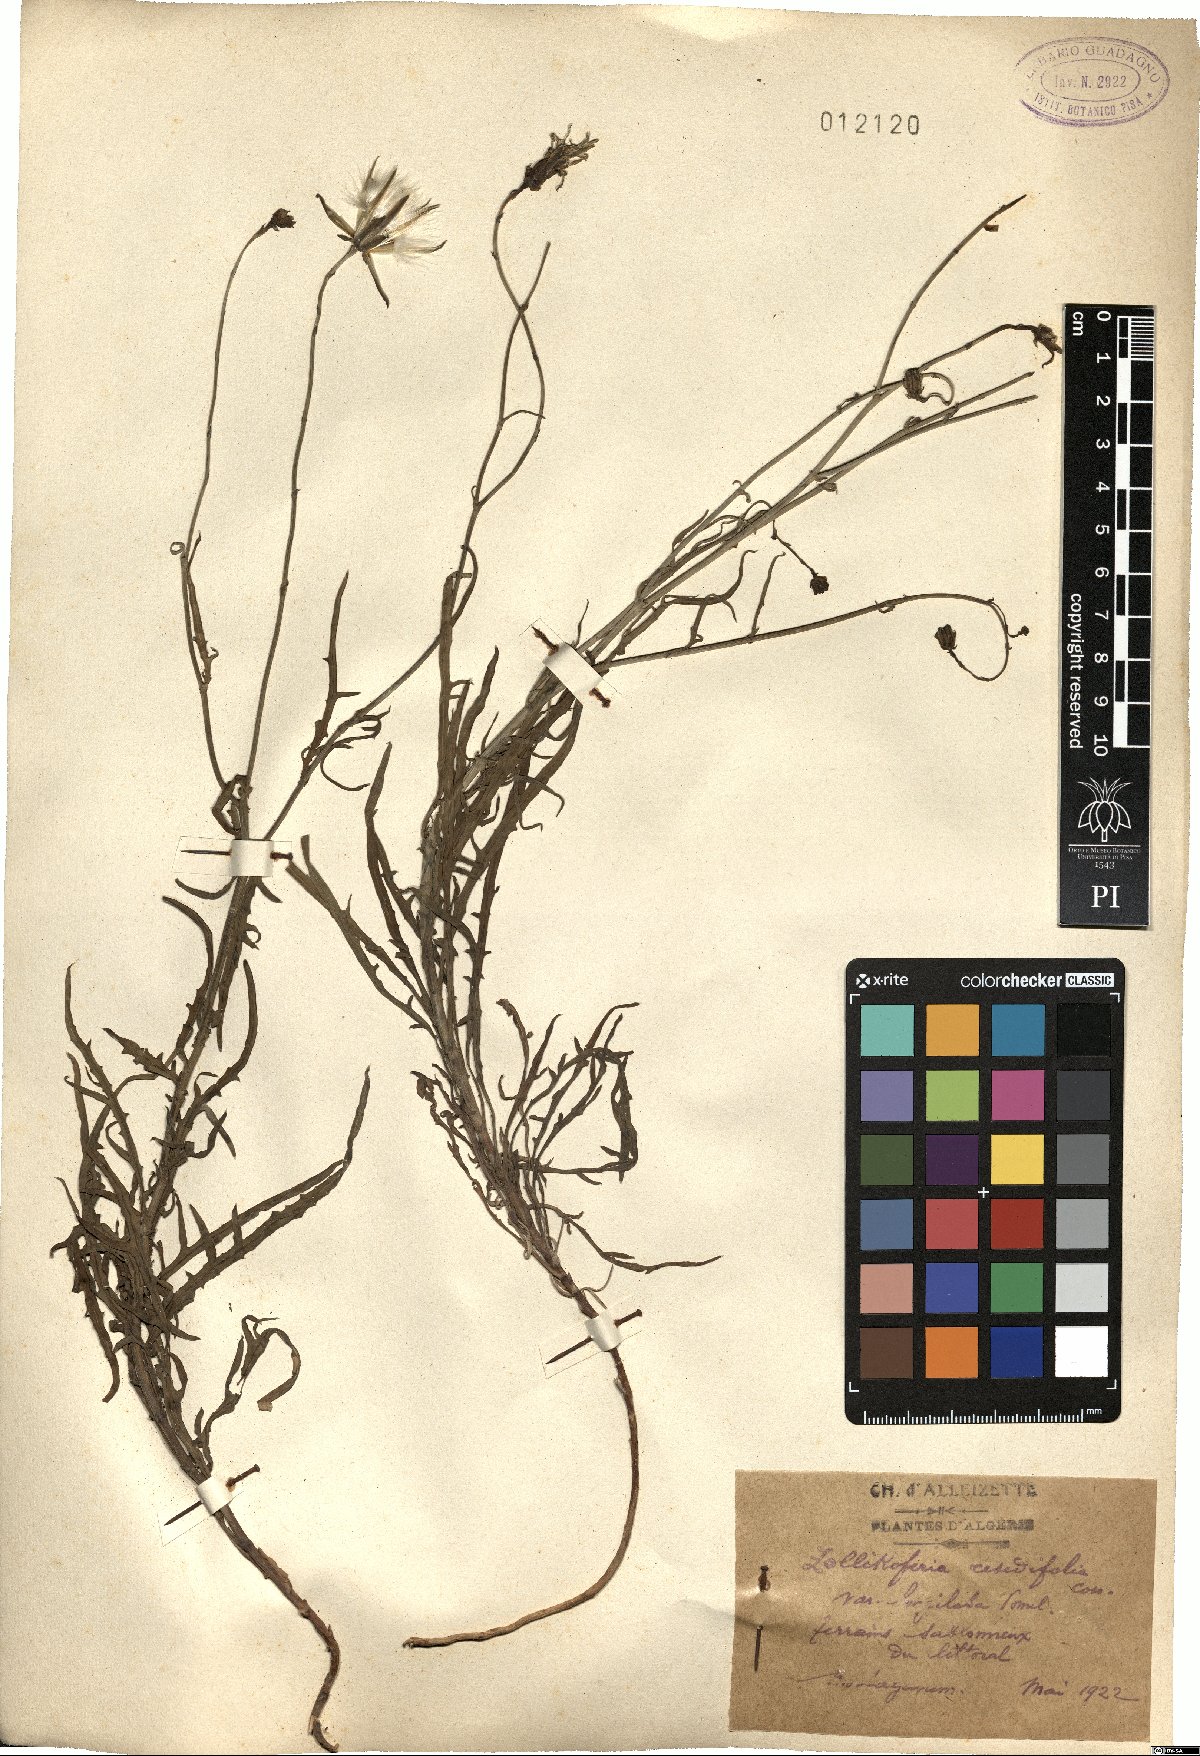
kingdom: Plantae
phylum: Tracheophyta
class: Magnoliopsida
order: Asterales
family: Asteraceae
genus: Launaea
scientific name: Launaea fragilis
